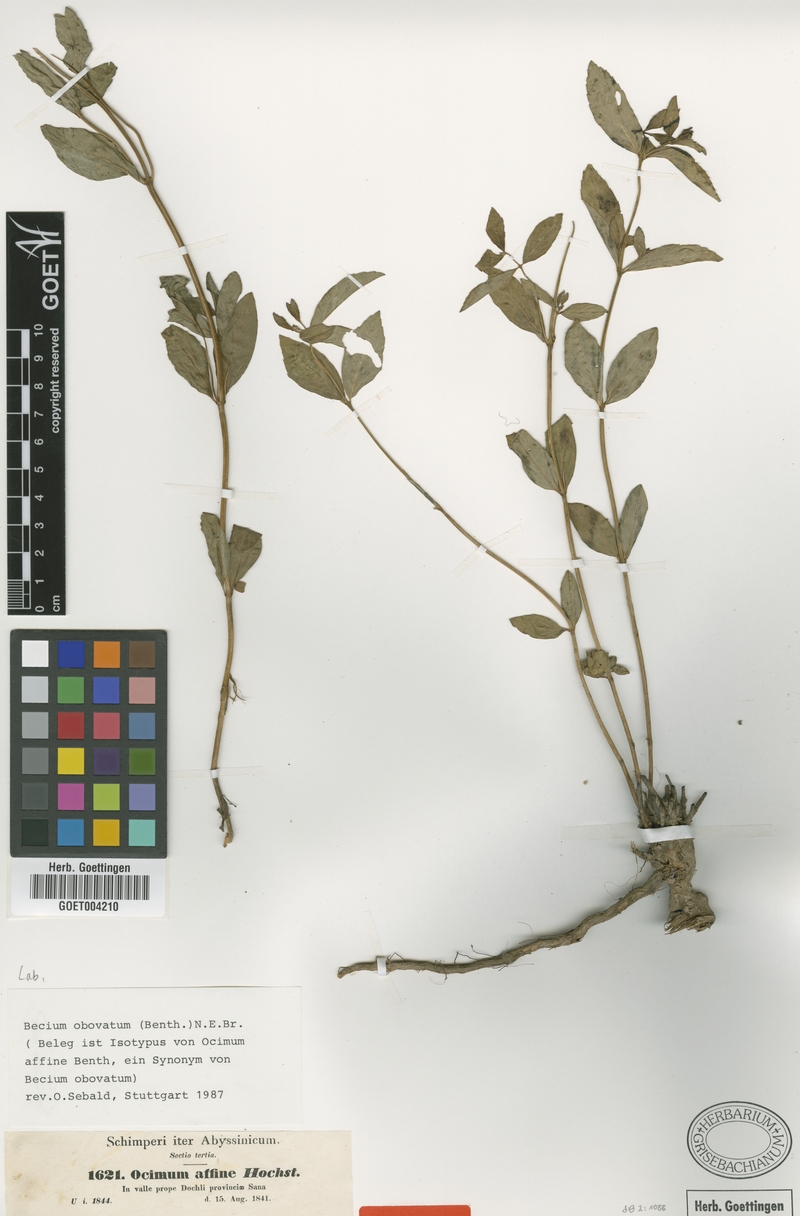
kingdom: Plantae
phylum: Tracheophyta
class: Magnoliopsida
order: Lamiales
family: Lamiaceae
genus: Ocimum
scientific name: Ocimum obovatum
